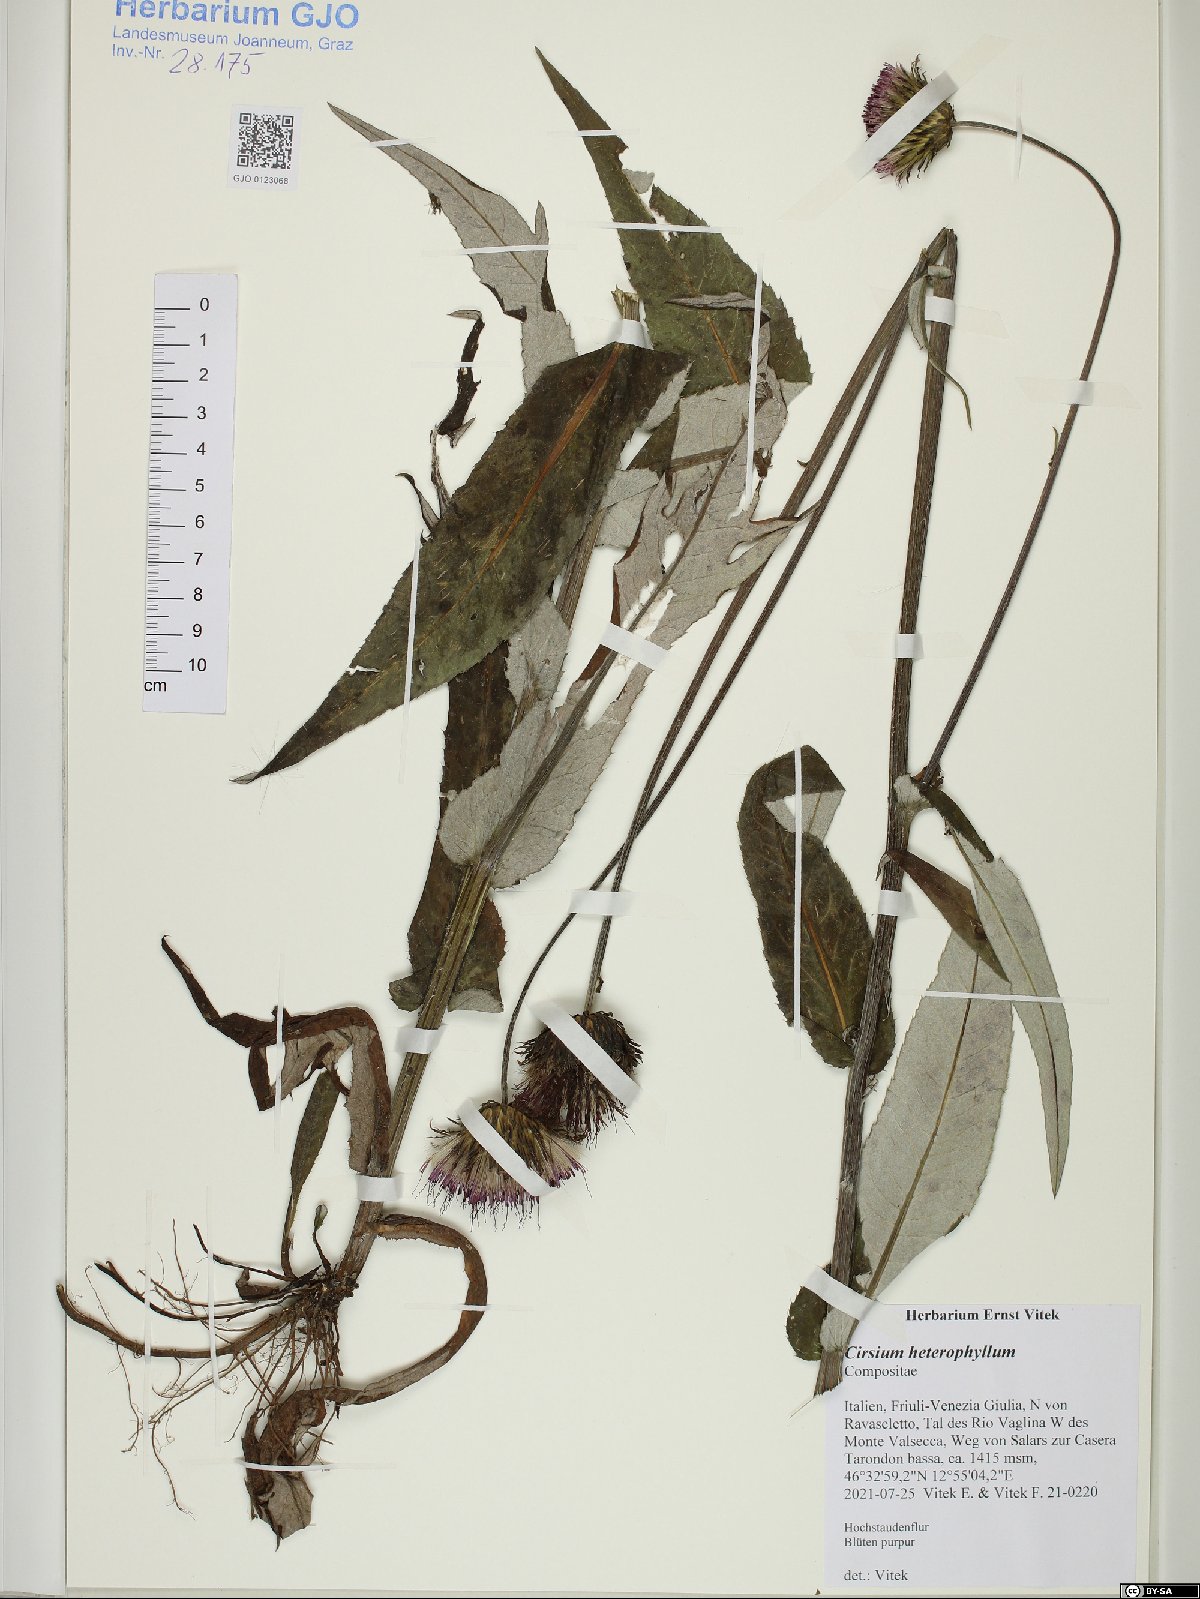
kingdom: Plantae
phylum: Tracheophyta
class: Magnoliopsida
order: Asterales
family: Asteraceae
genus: Cirsium
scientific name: Cirsium heterophyllum
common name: Melancholy thistle
